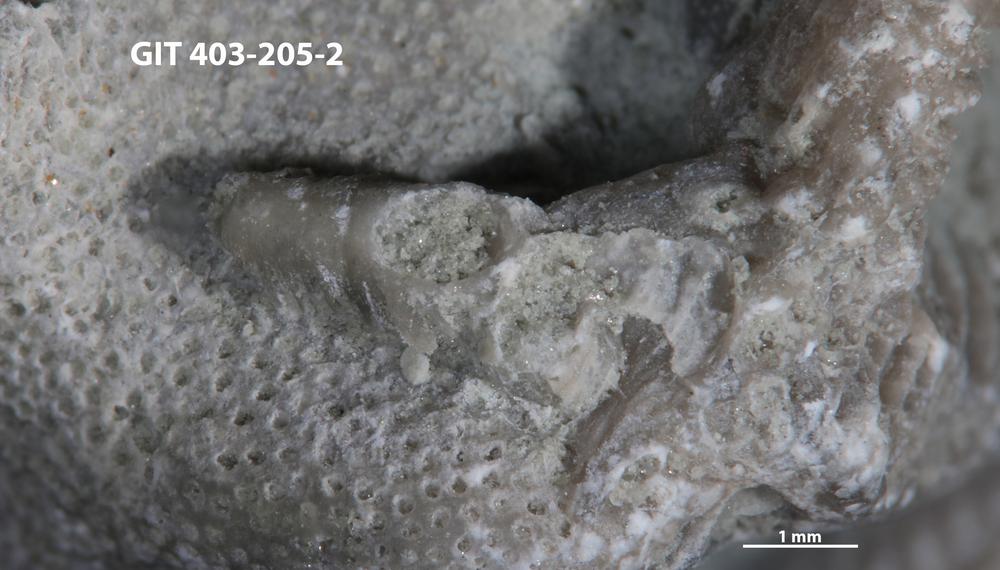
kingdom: Animalia
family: Cornulitidae
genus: Conchicolites
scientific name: Conchicolites
